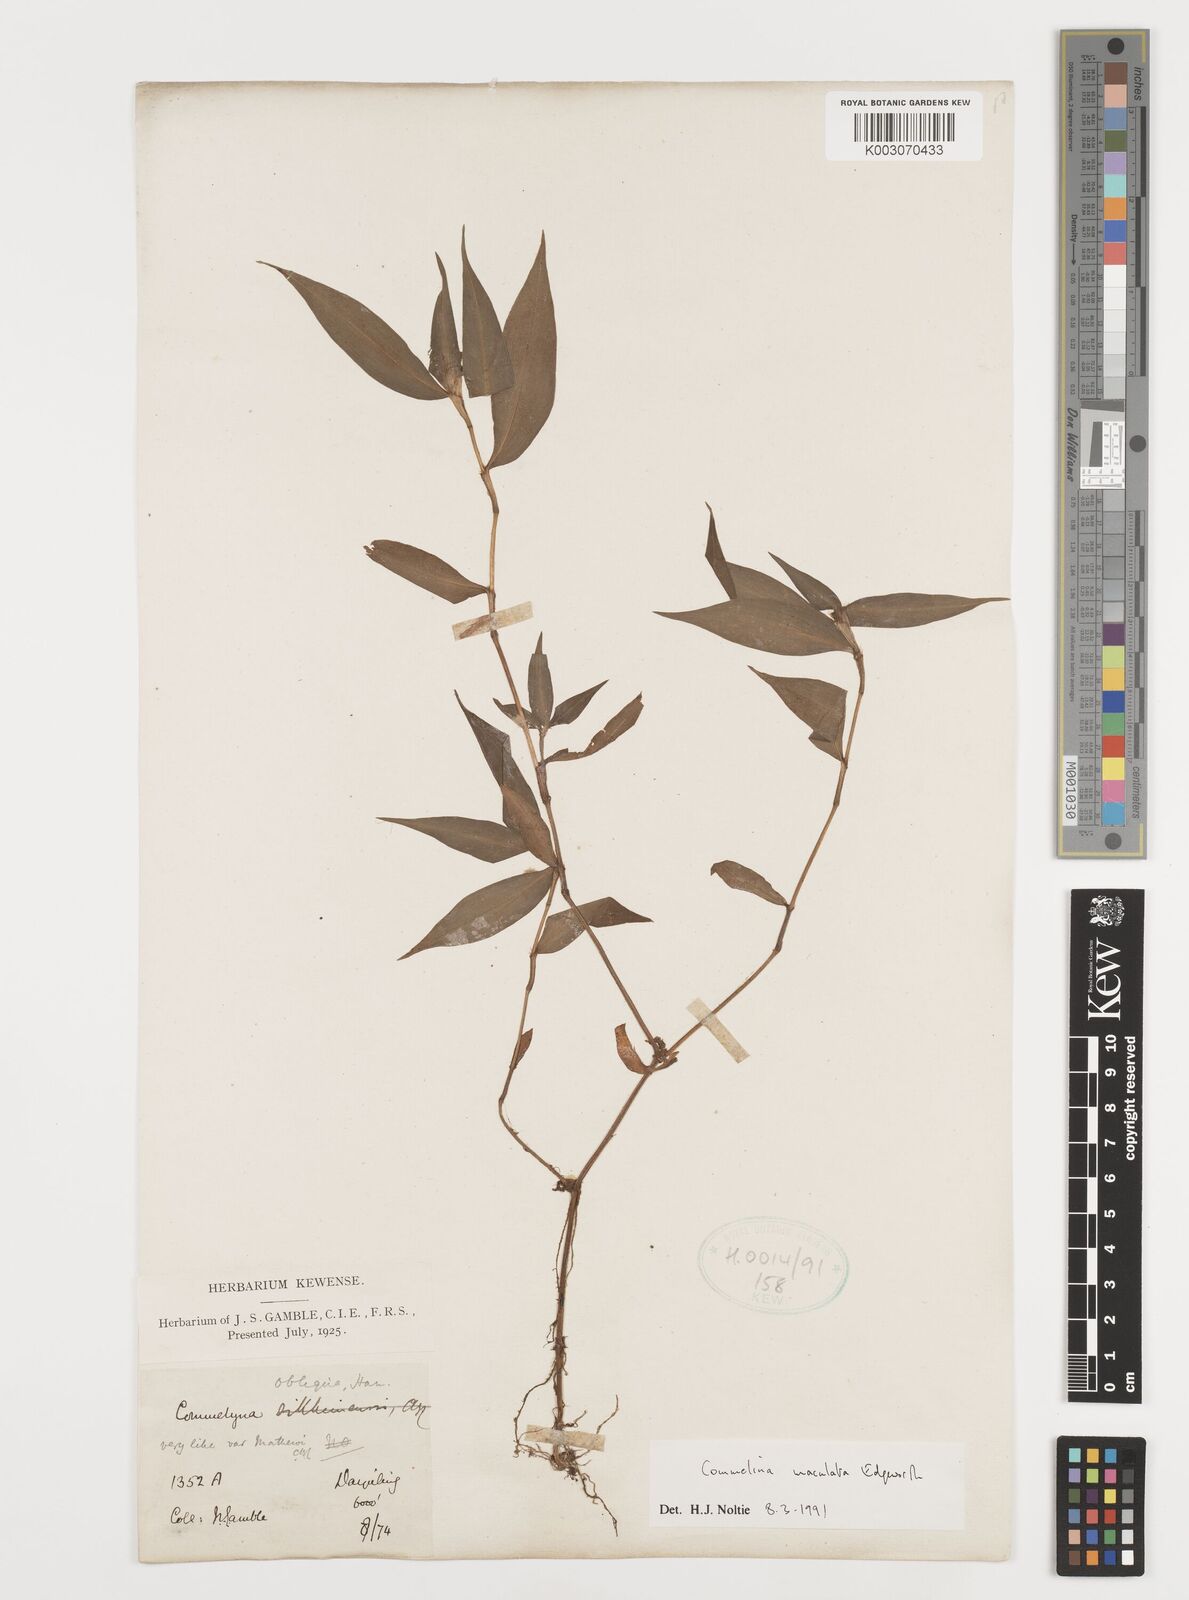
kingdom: Plantae
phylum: Tracheophyta
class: Liliopsida
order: Commelinales
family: Commelinaceae
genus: Commelina
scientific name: Commelina maculata
